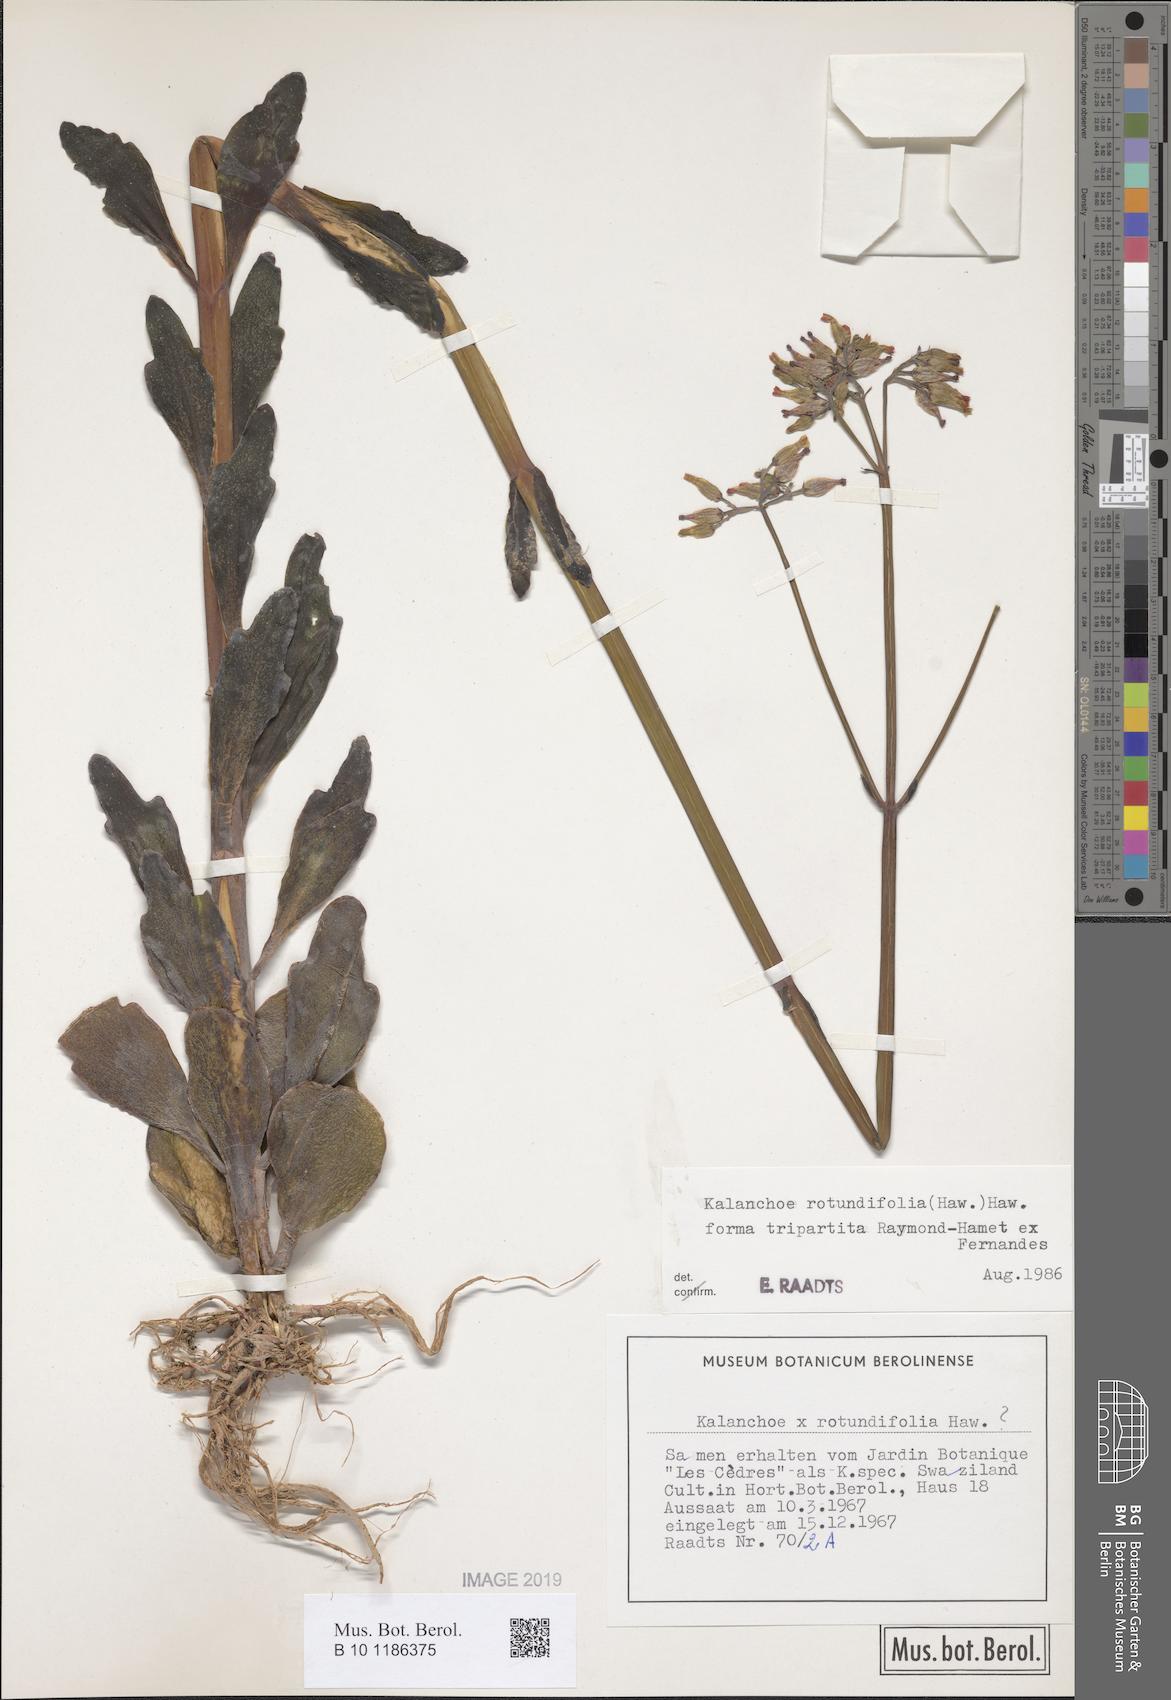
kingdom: Plantae
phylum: Tracheophyta
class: Magnoliopsida
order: Saxifragales
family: Crassulaceae
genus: Kalanchoe
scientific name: Kalanchoe rotundifolia
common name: Common kalanchoe
